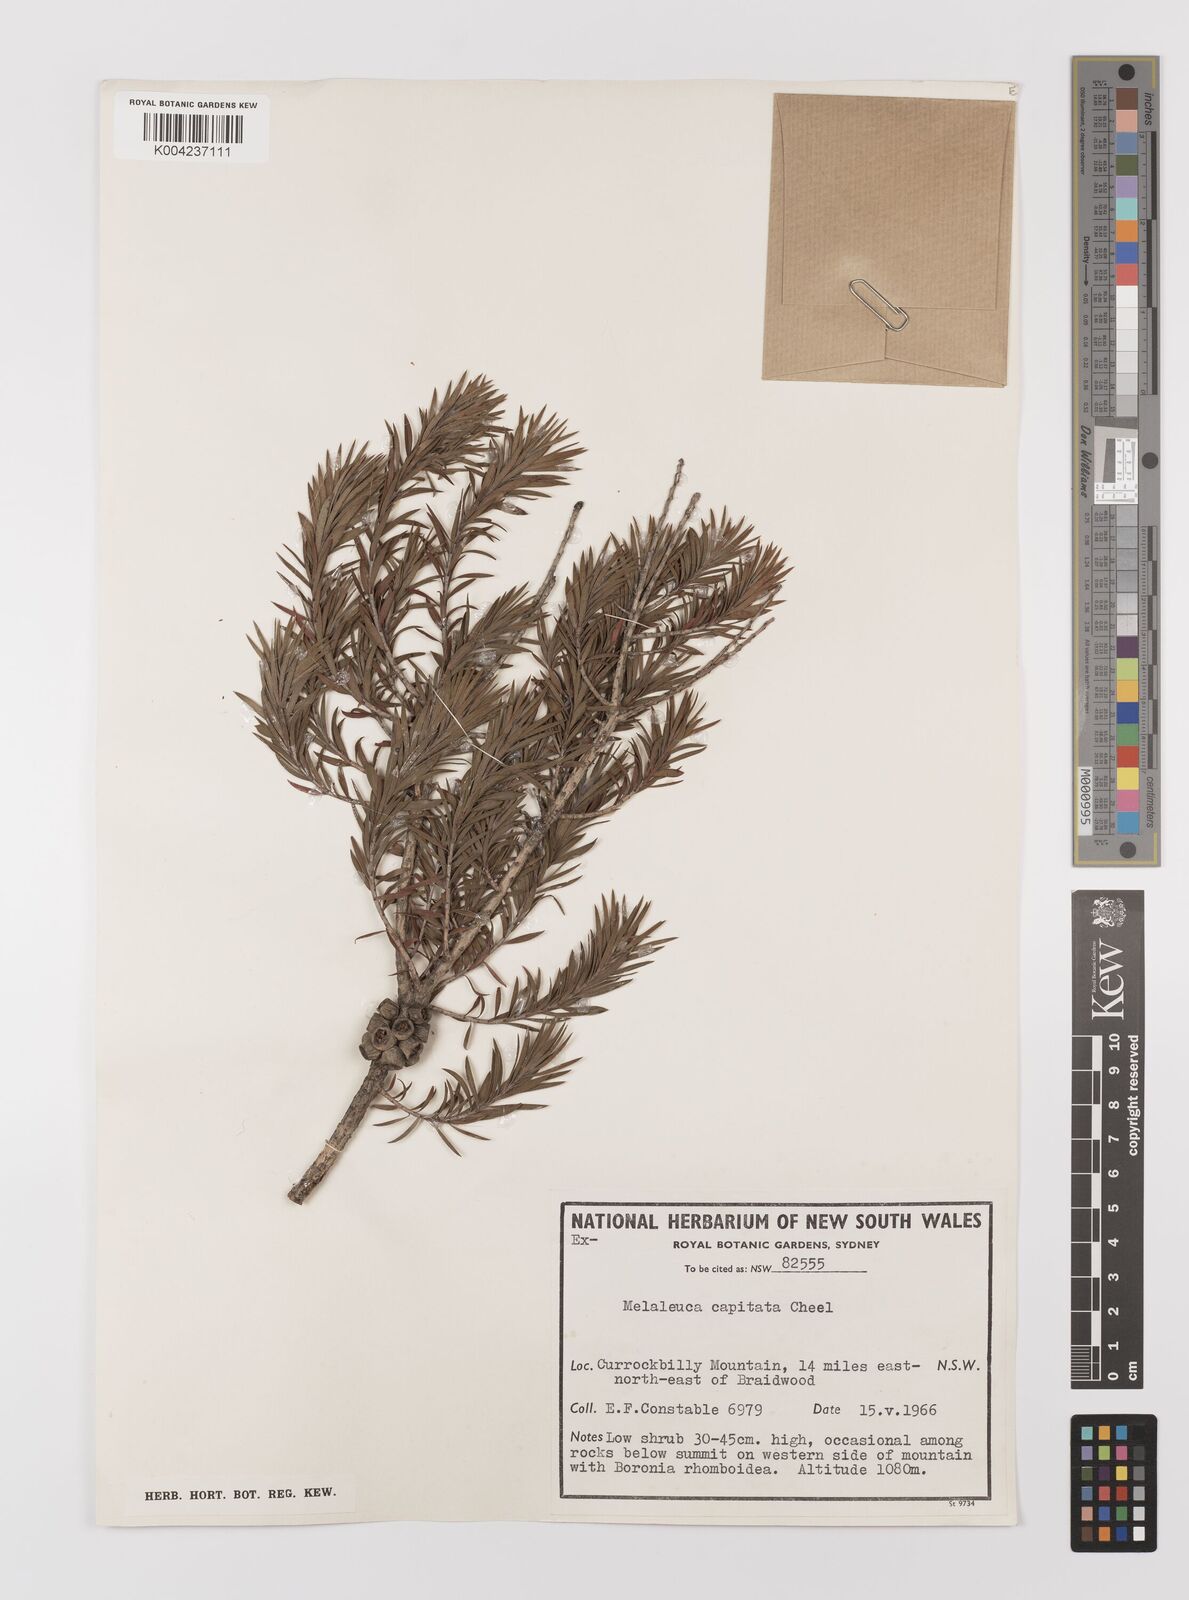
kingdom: Plantae
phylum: Tracheophyta
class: Magnoliopsida
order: Myrtales
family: Myrtaceae
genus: Melaleuca
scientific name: Melaleuca capitata
